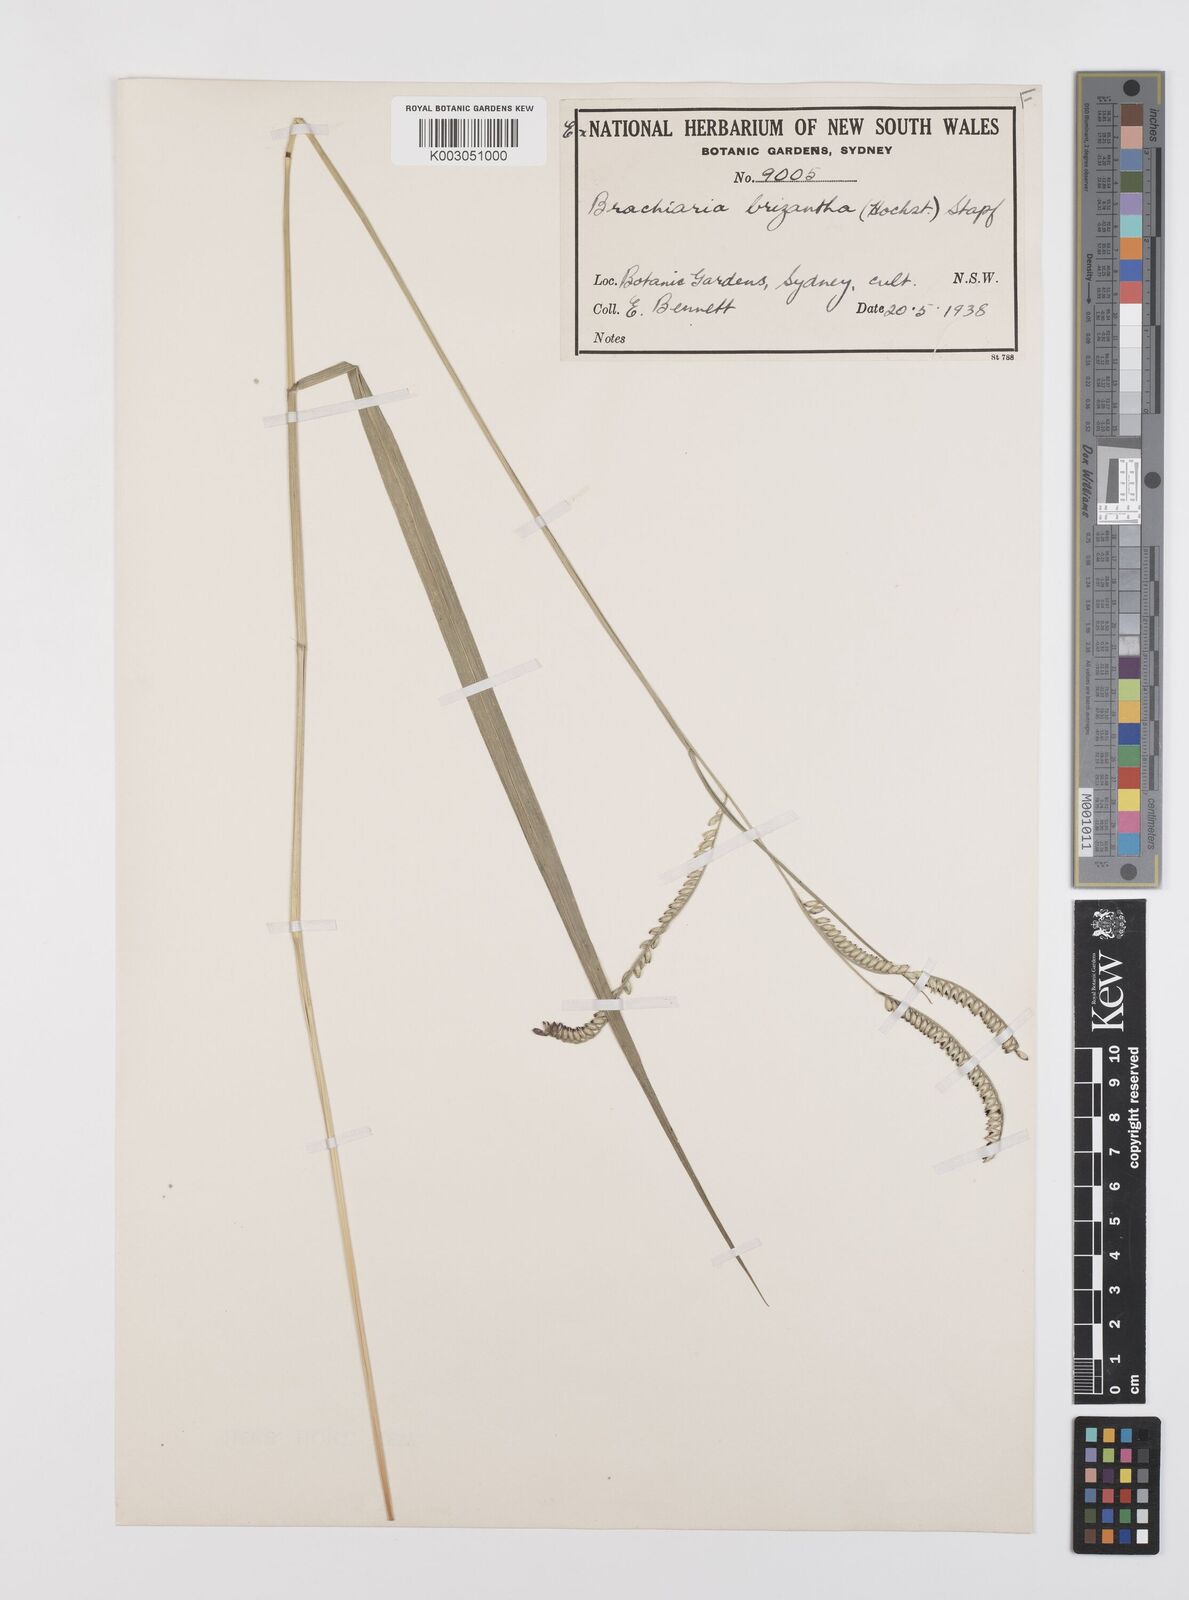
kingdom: Plantae
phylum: Tracheophyta
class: Liliopsida
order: Poales
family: Poaceae
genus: Urochloa
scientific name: Urochloa brizantha
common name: Palisade signalgrass
